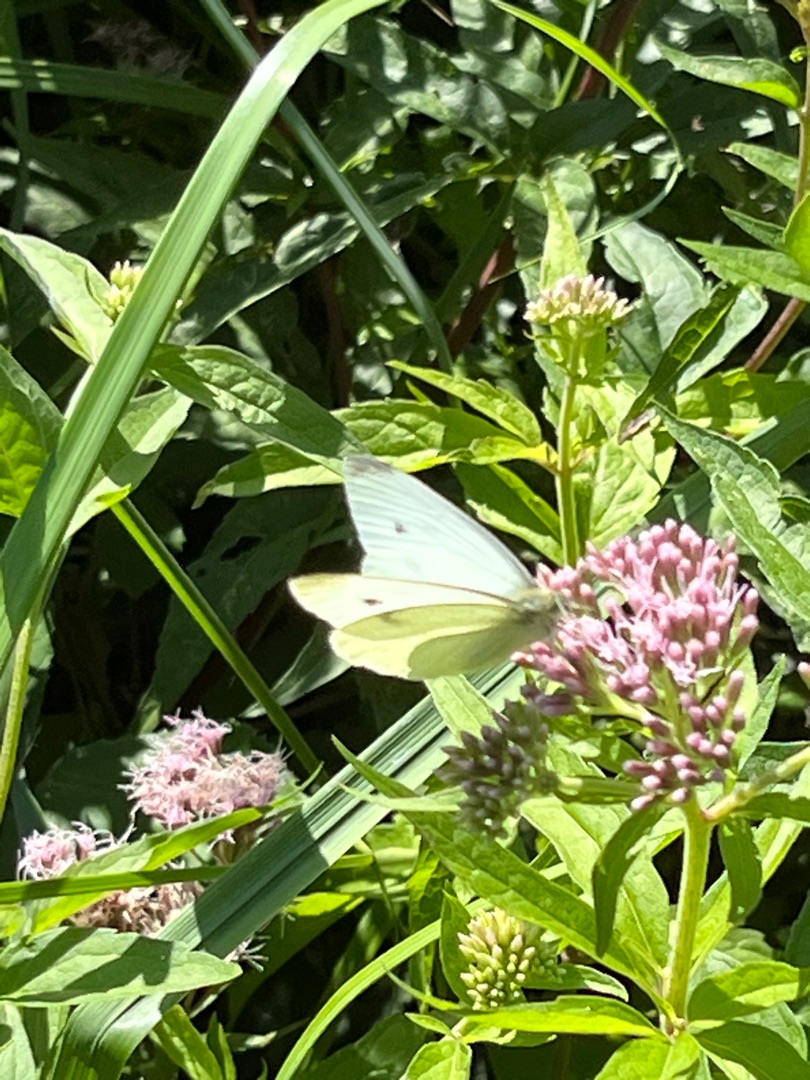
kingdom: Animalia
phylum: Arthropoda
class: Insecta
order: Lepidoptera
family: Pieridae
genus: Pieris
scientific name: Pieris rapae
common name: Lille kålsommerfugl
